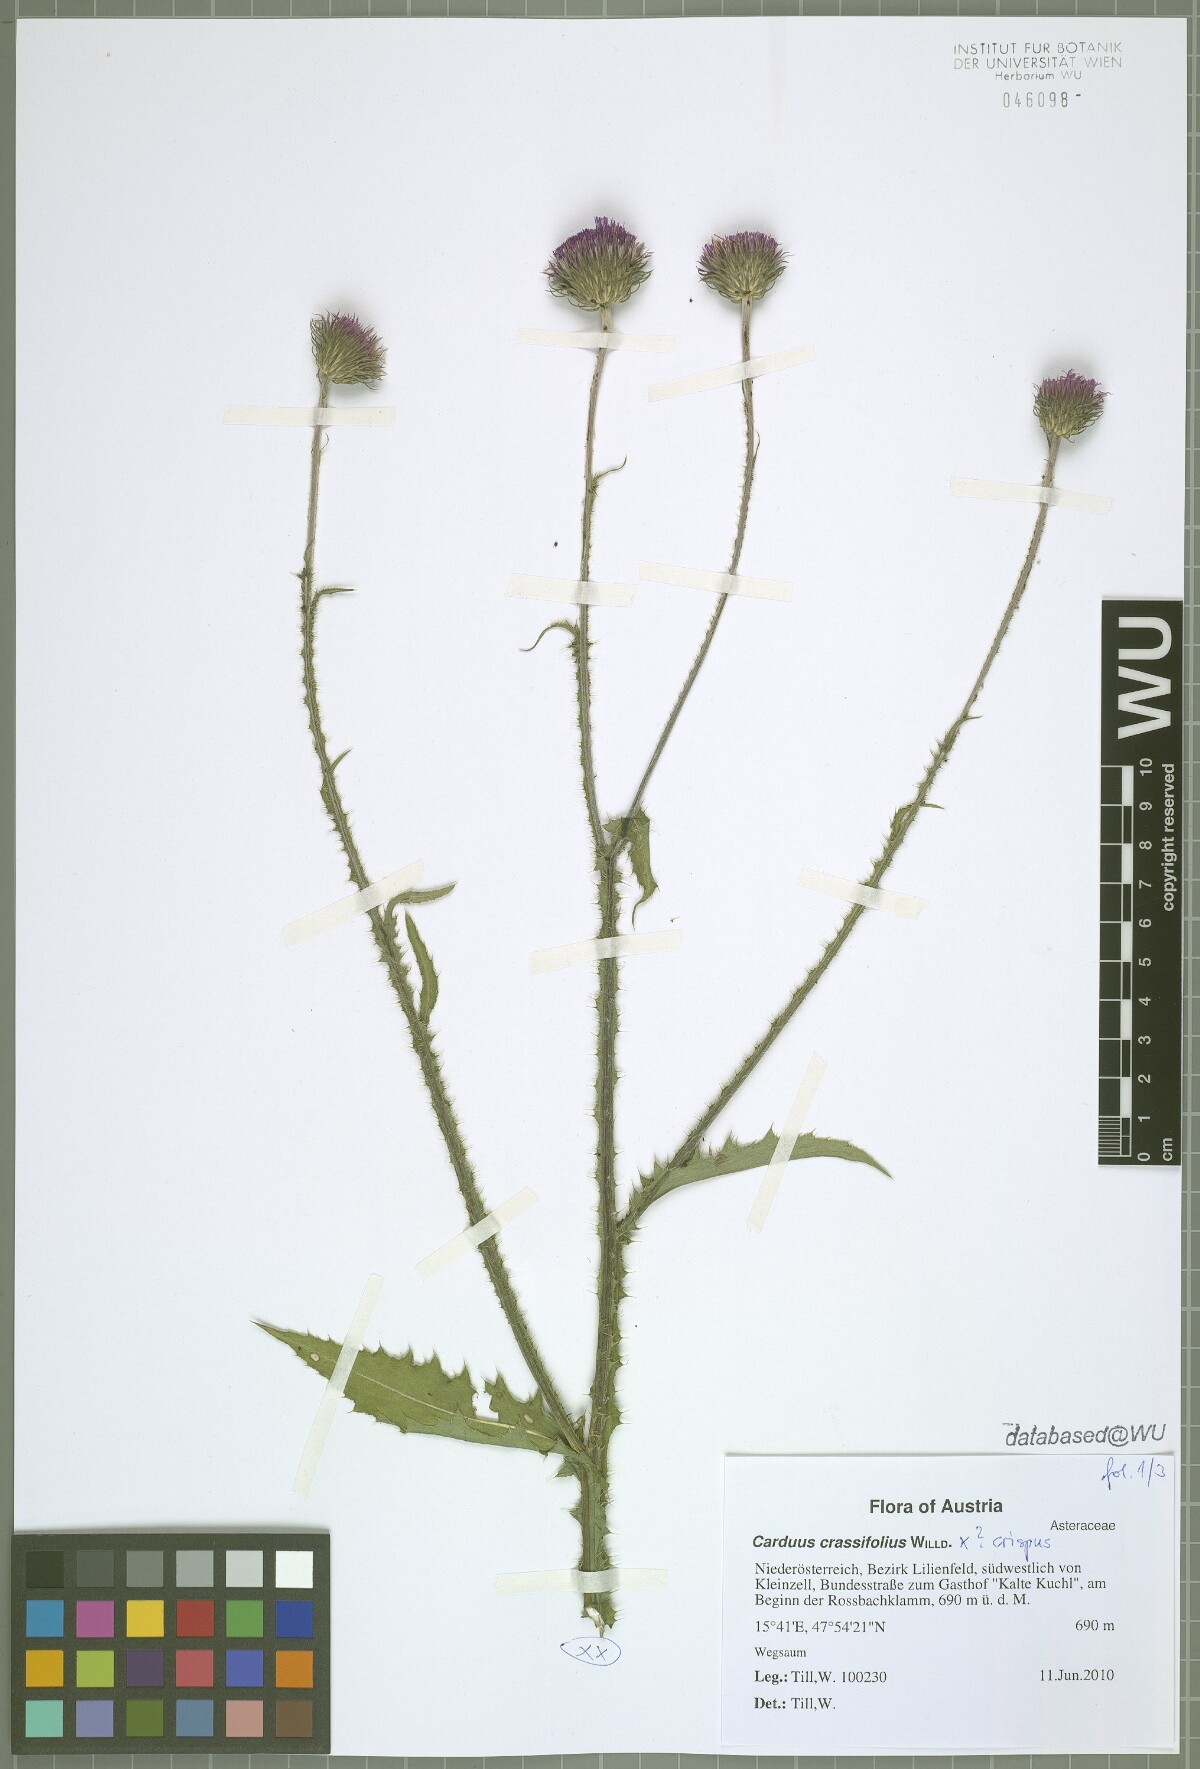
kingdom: Plantae
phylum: Tracheophyta
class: Magnoliopsida
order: Asterales
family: Asteraceae
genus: Carduus
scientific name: Carduus defloratus
